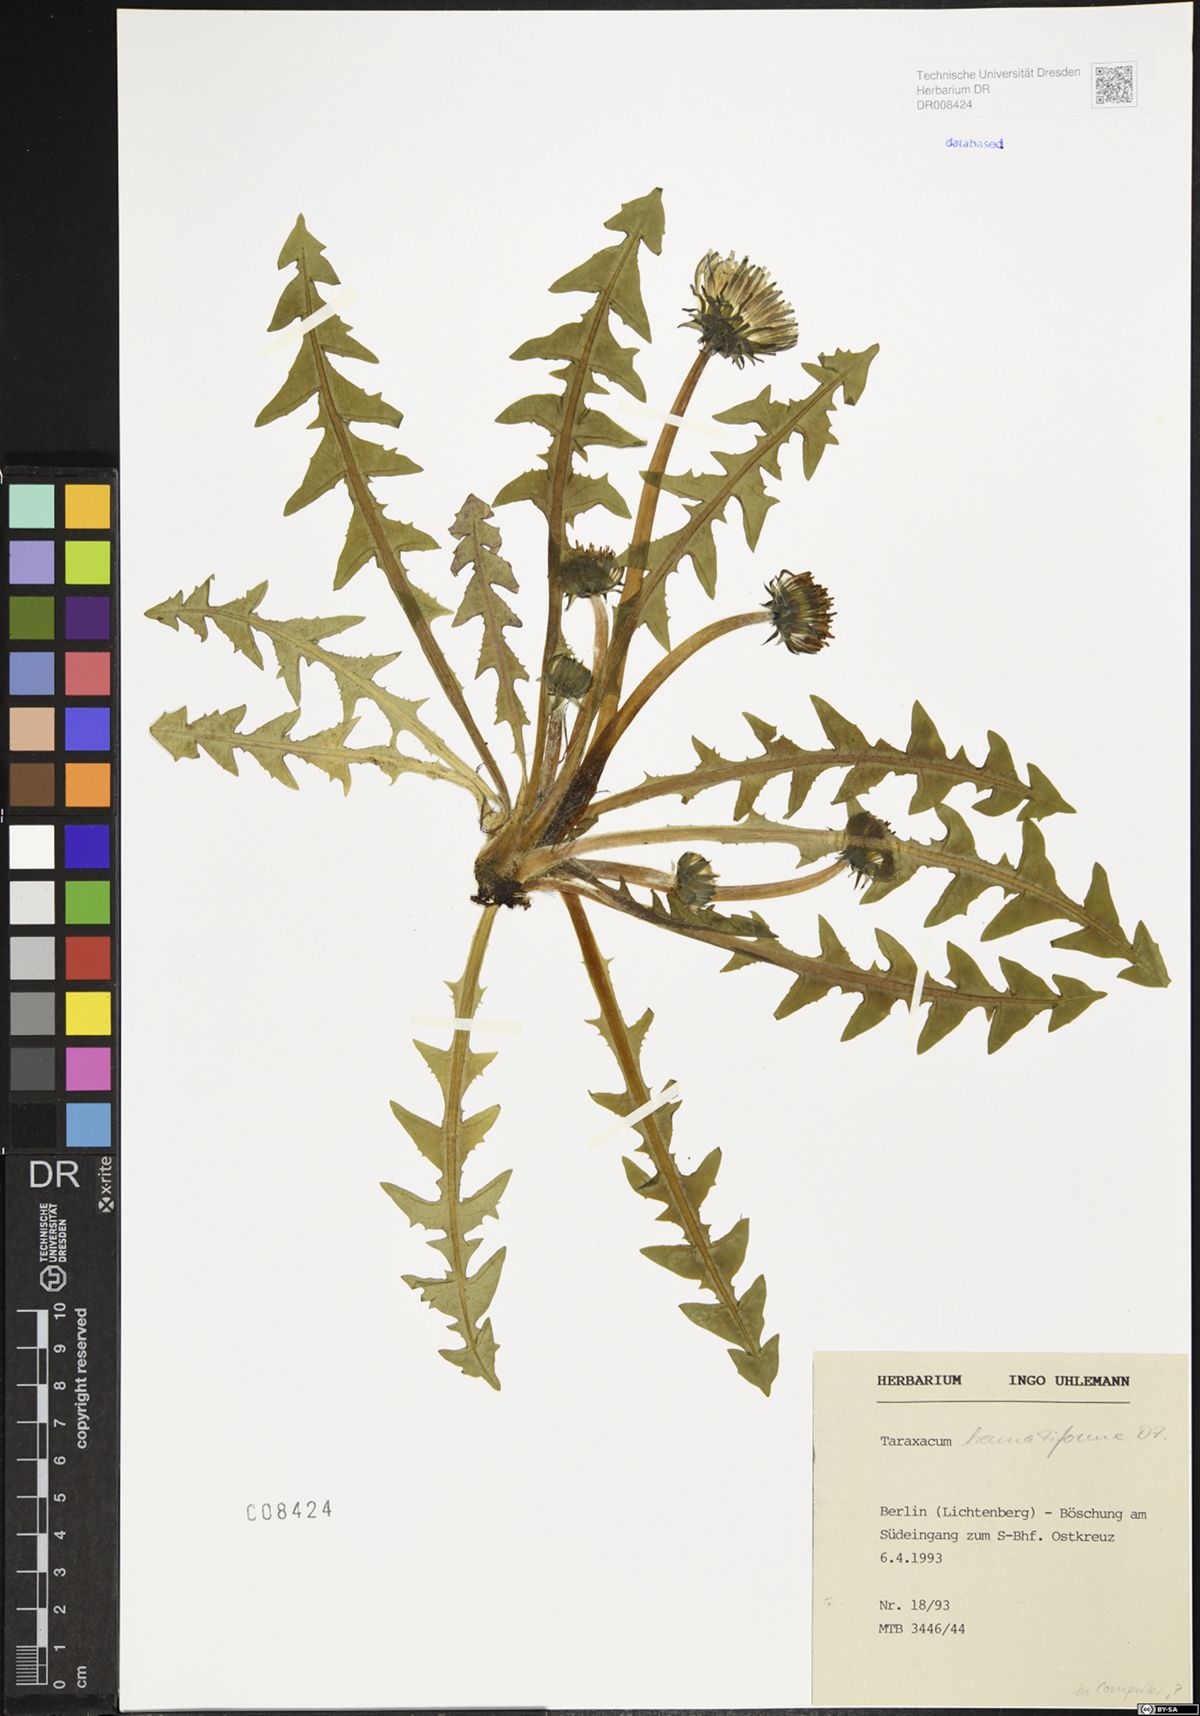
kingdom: Plantae
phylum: Tracheophyta
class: Magnoliopsida
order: Asterales
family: Asteraceae
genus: Taraxacum
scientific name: Taraxacum hamatiforme
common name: Asymmetrical hook-lobed dandelion
